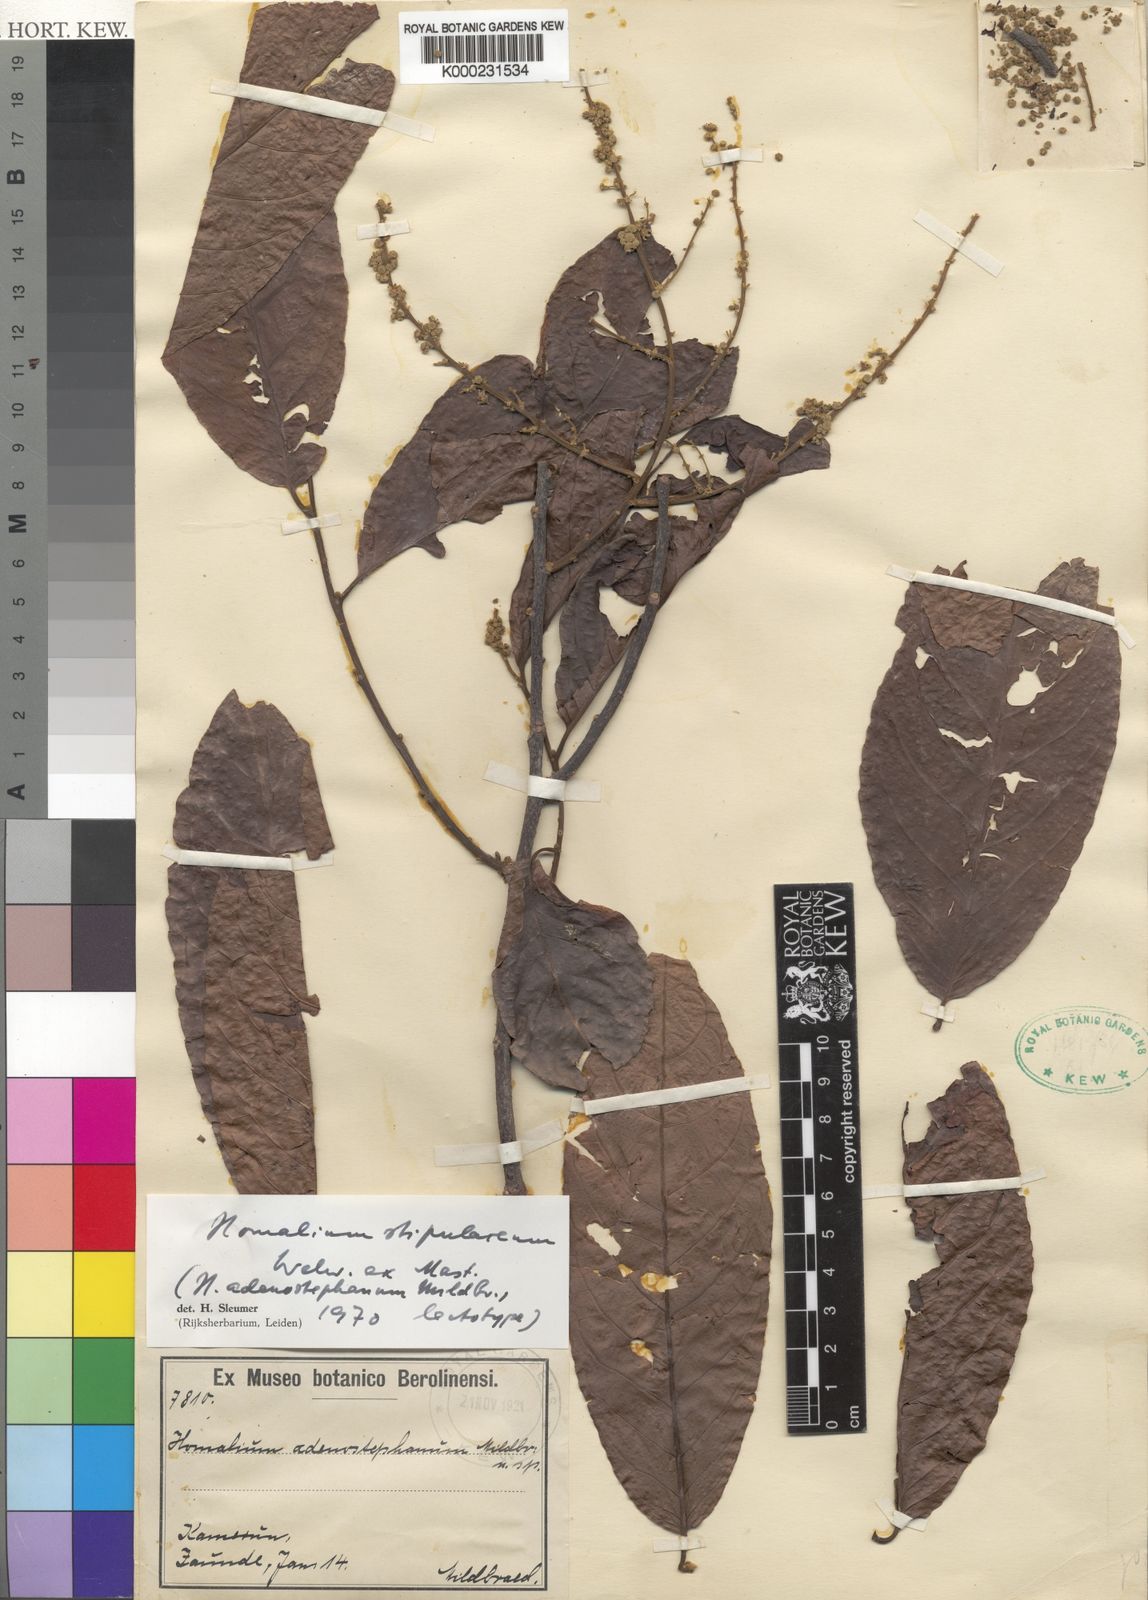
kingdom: Plantae
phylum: Tracheophyta
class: Magnoliopsida
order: Malpighiales
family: Salicaceae
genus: Homalium
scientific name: Homalium stipulaceum
